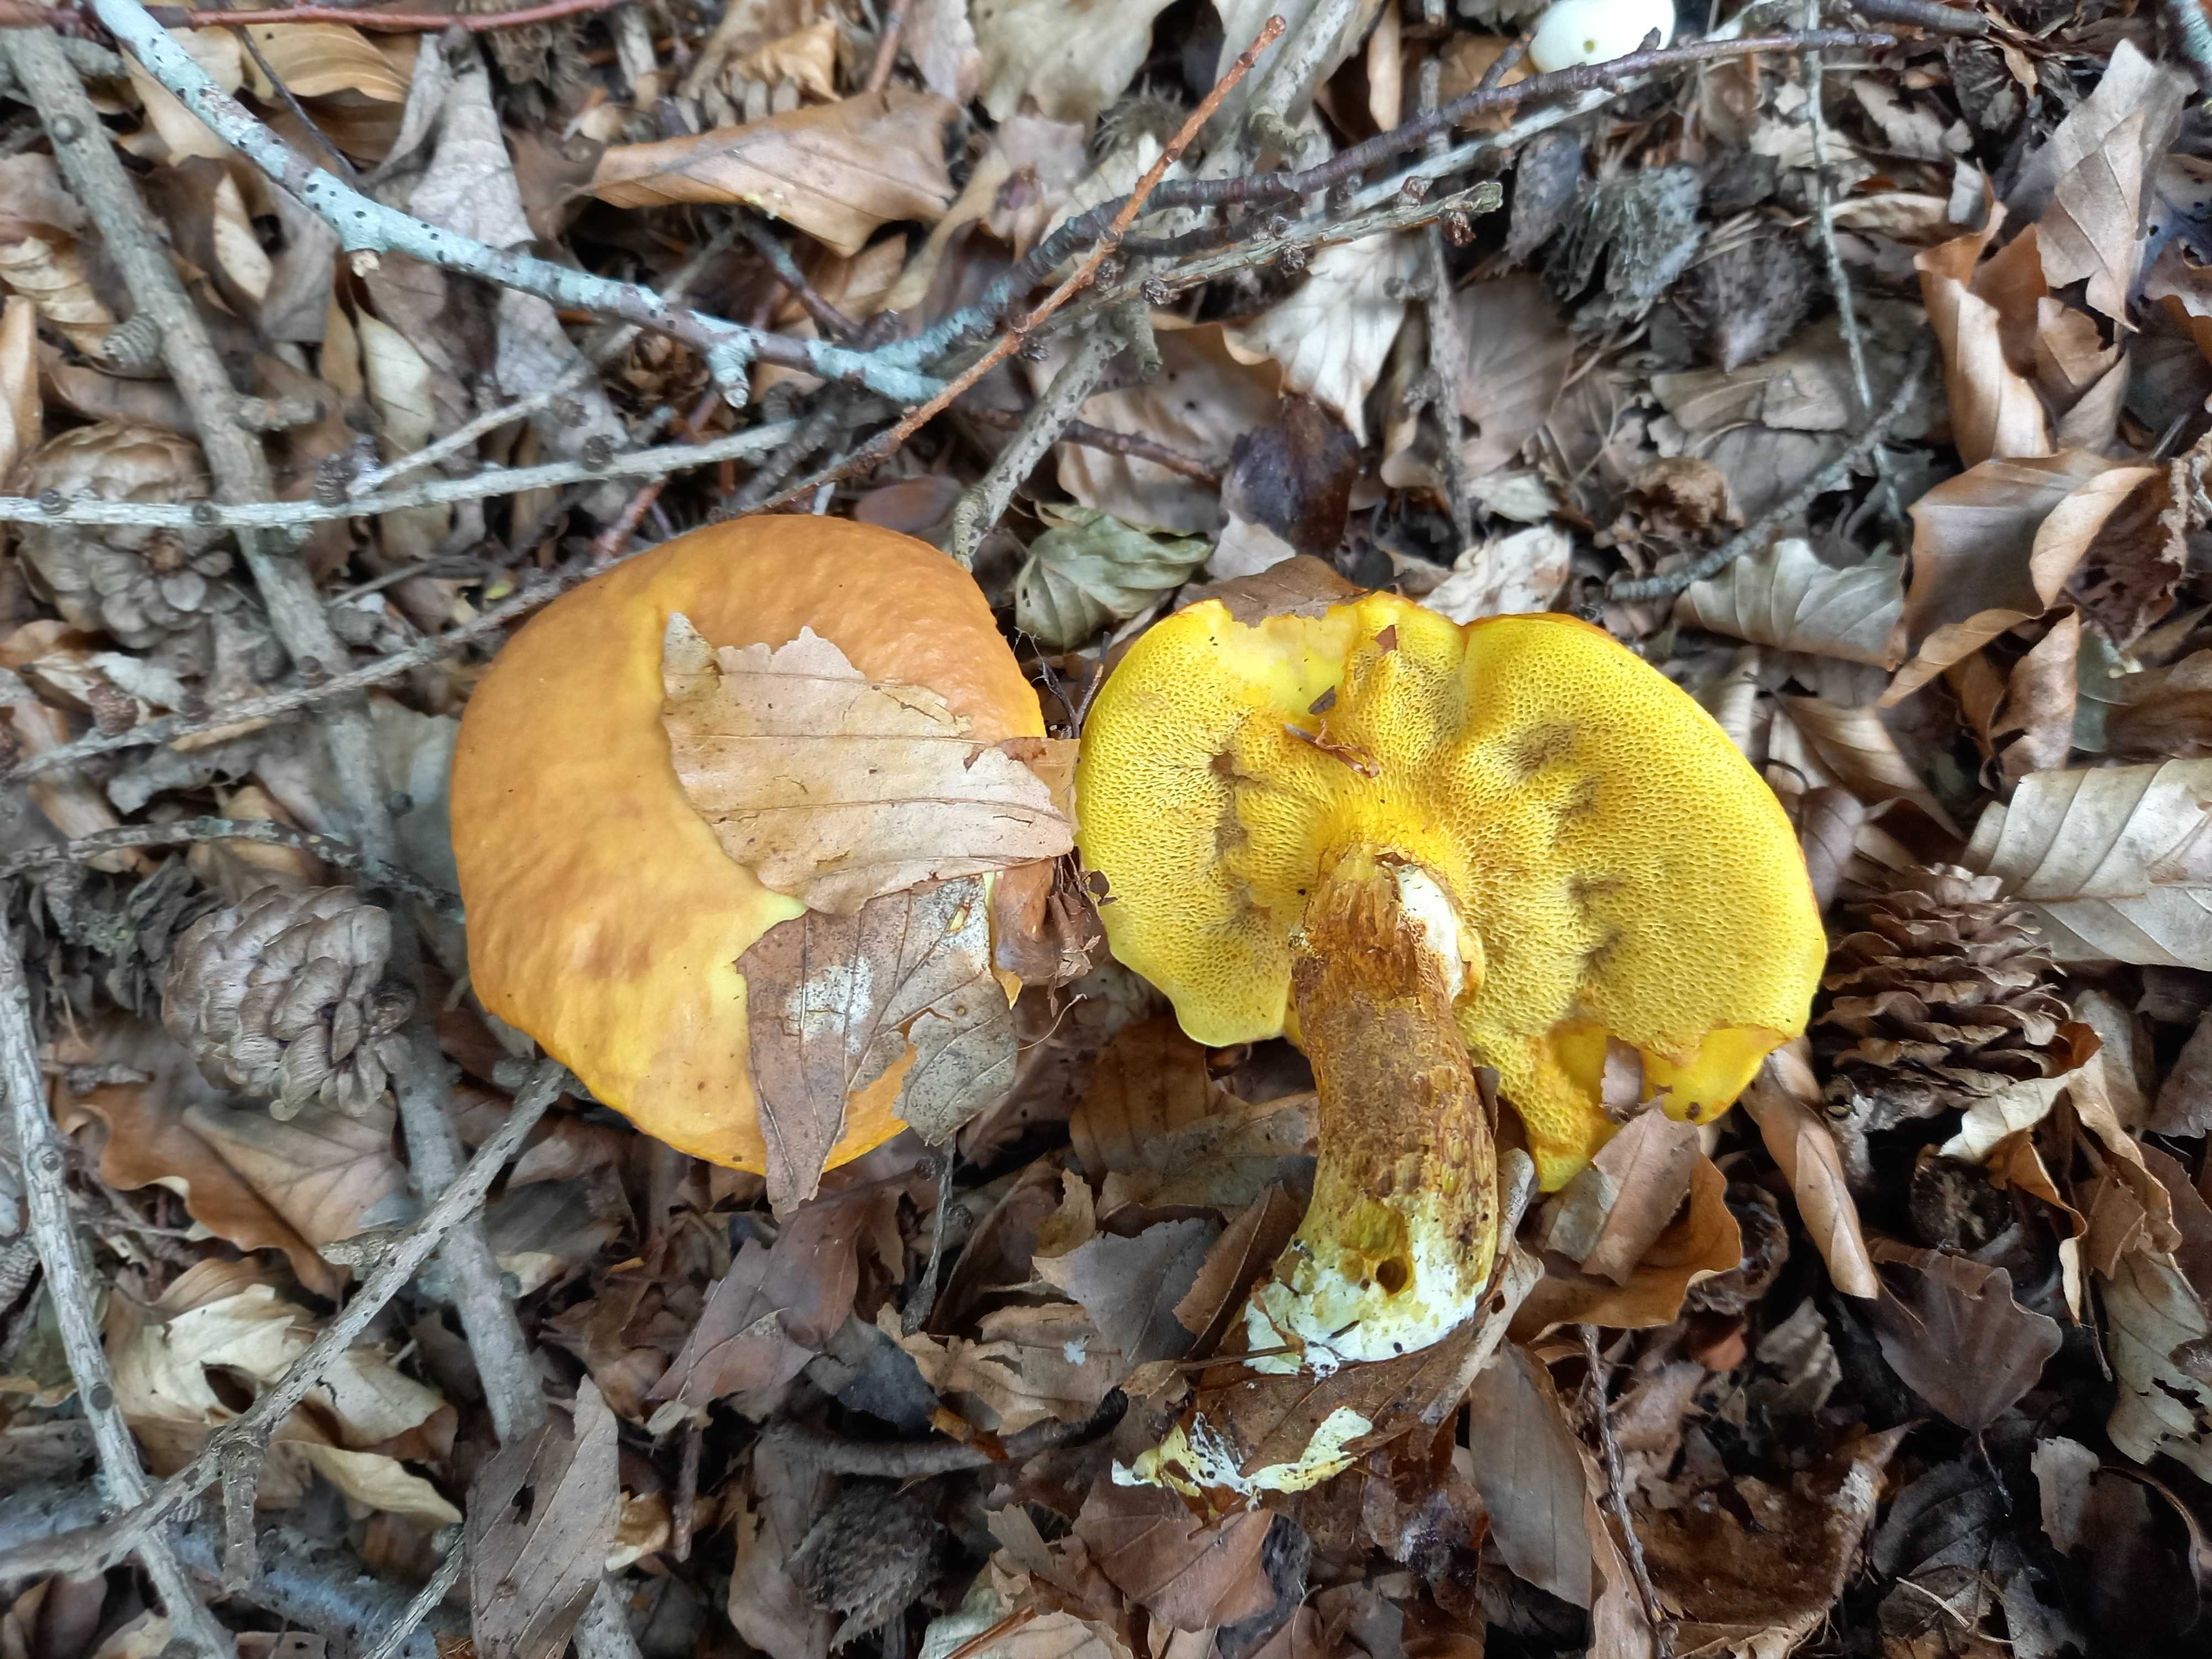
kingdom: Fungi
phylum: Basidiomycota
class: Agaricomycetes
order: Boletales
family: Suillaceae
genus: Suillus
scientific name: Suillus grevillei
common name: lærke-slimrørhat
